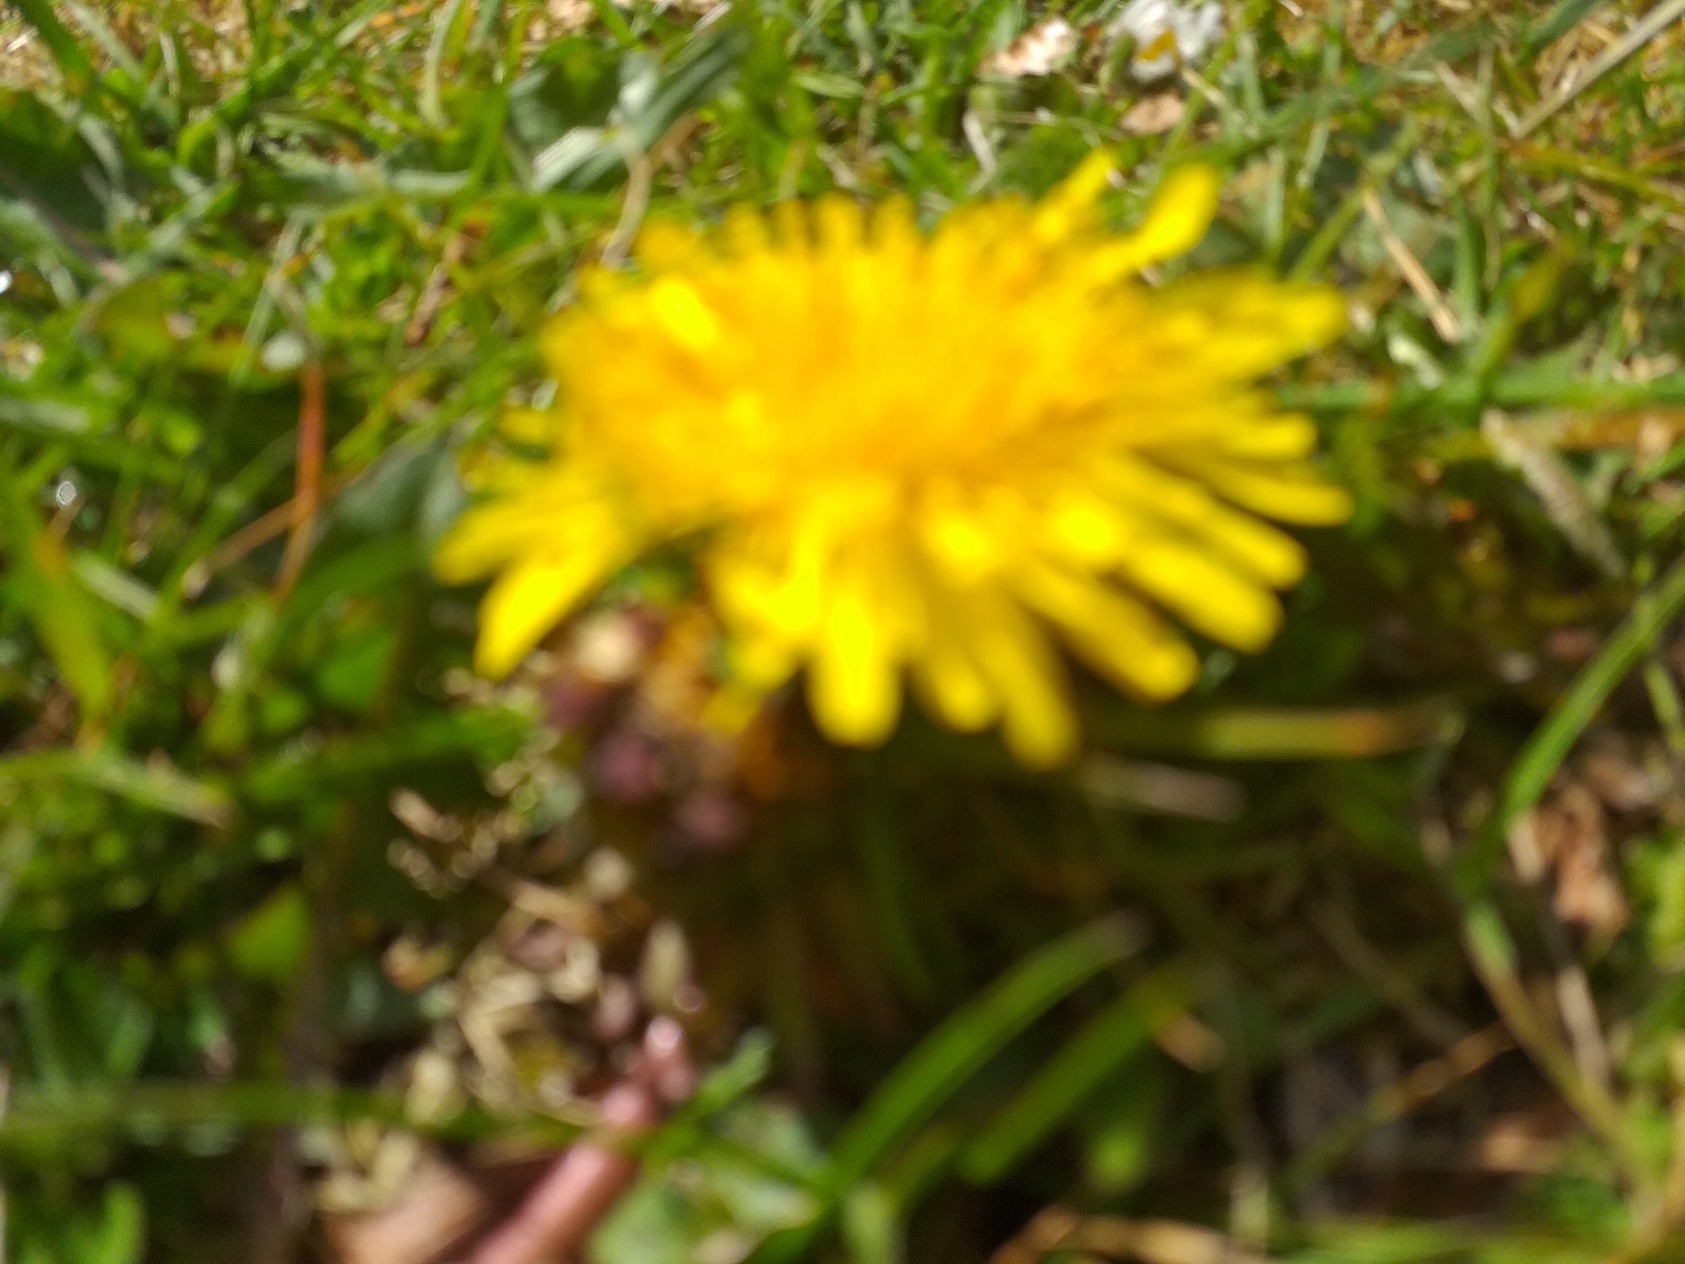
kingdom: Plantae
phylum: Tracheophyta
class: Magnoliopsida
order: Asterales
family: Asteraceae
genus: Taraxacum
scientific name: Taraxacum
